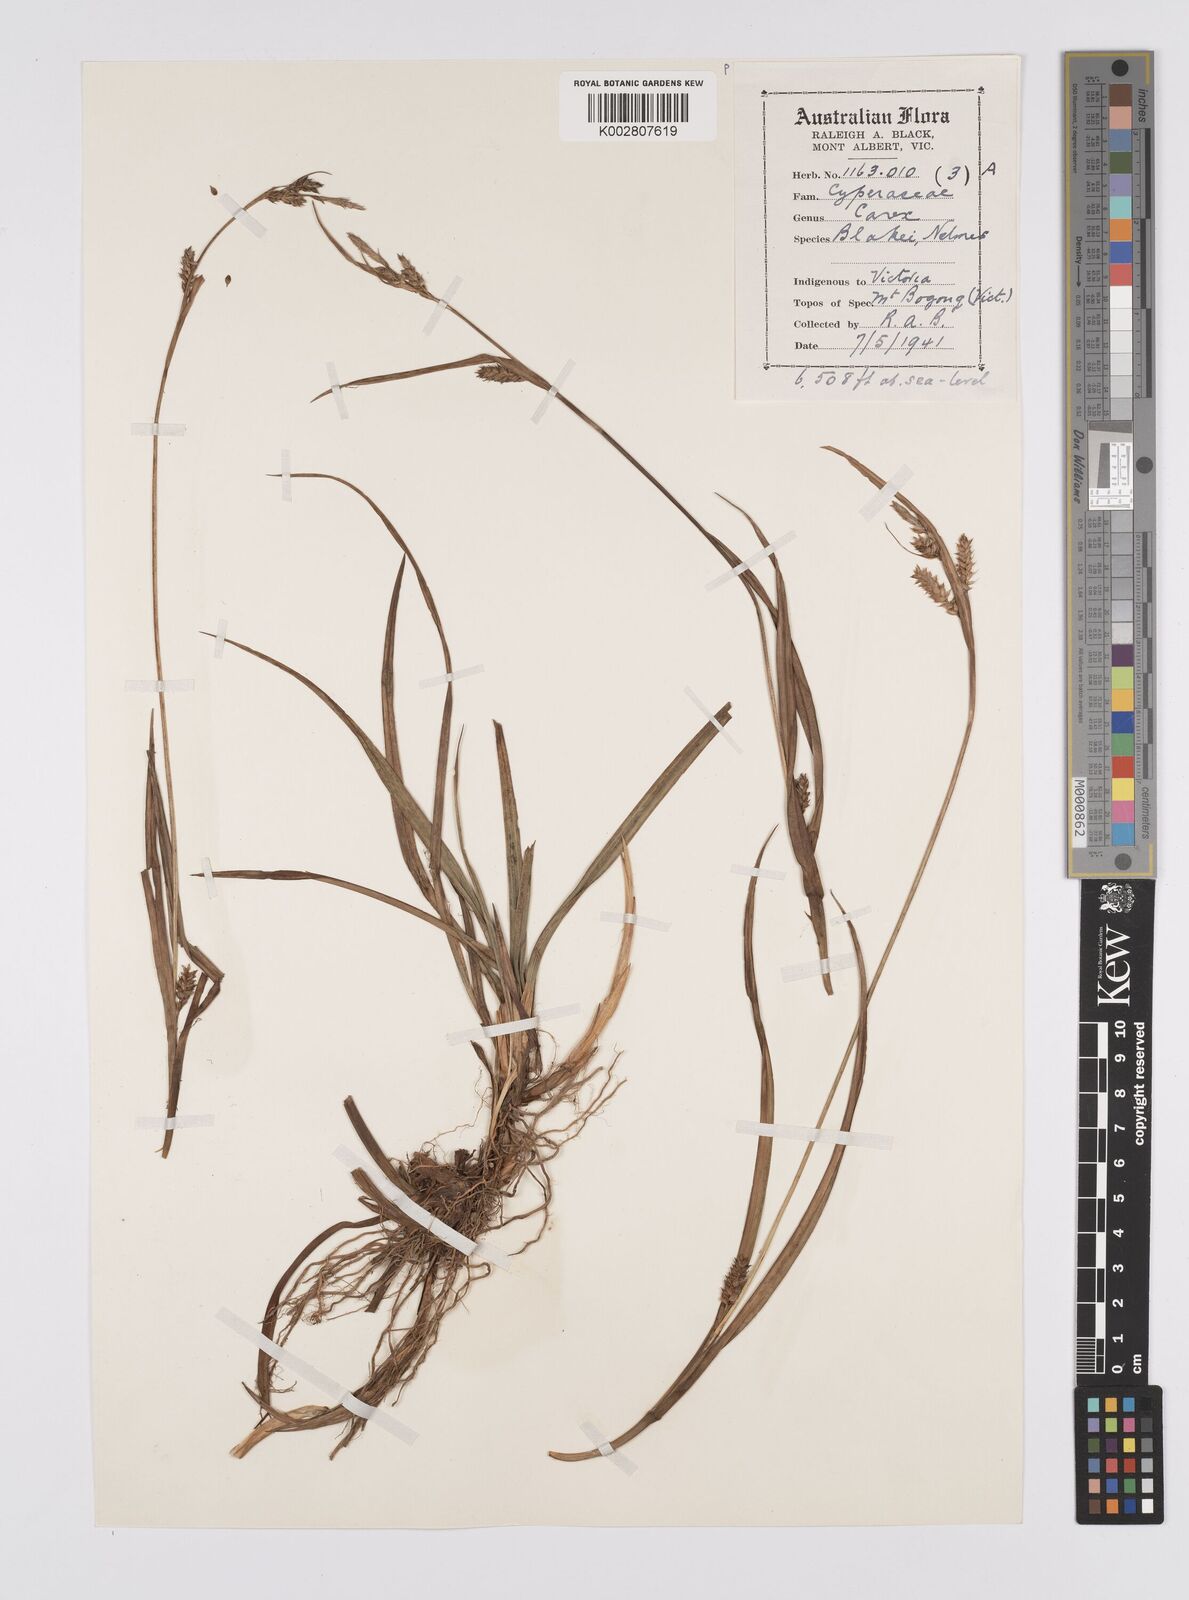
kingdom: Plantae
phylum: Tracheophyta
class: Liliopsida
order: Poales
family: Cyperaceae
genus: Carex
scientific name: Carex blakei
